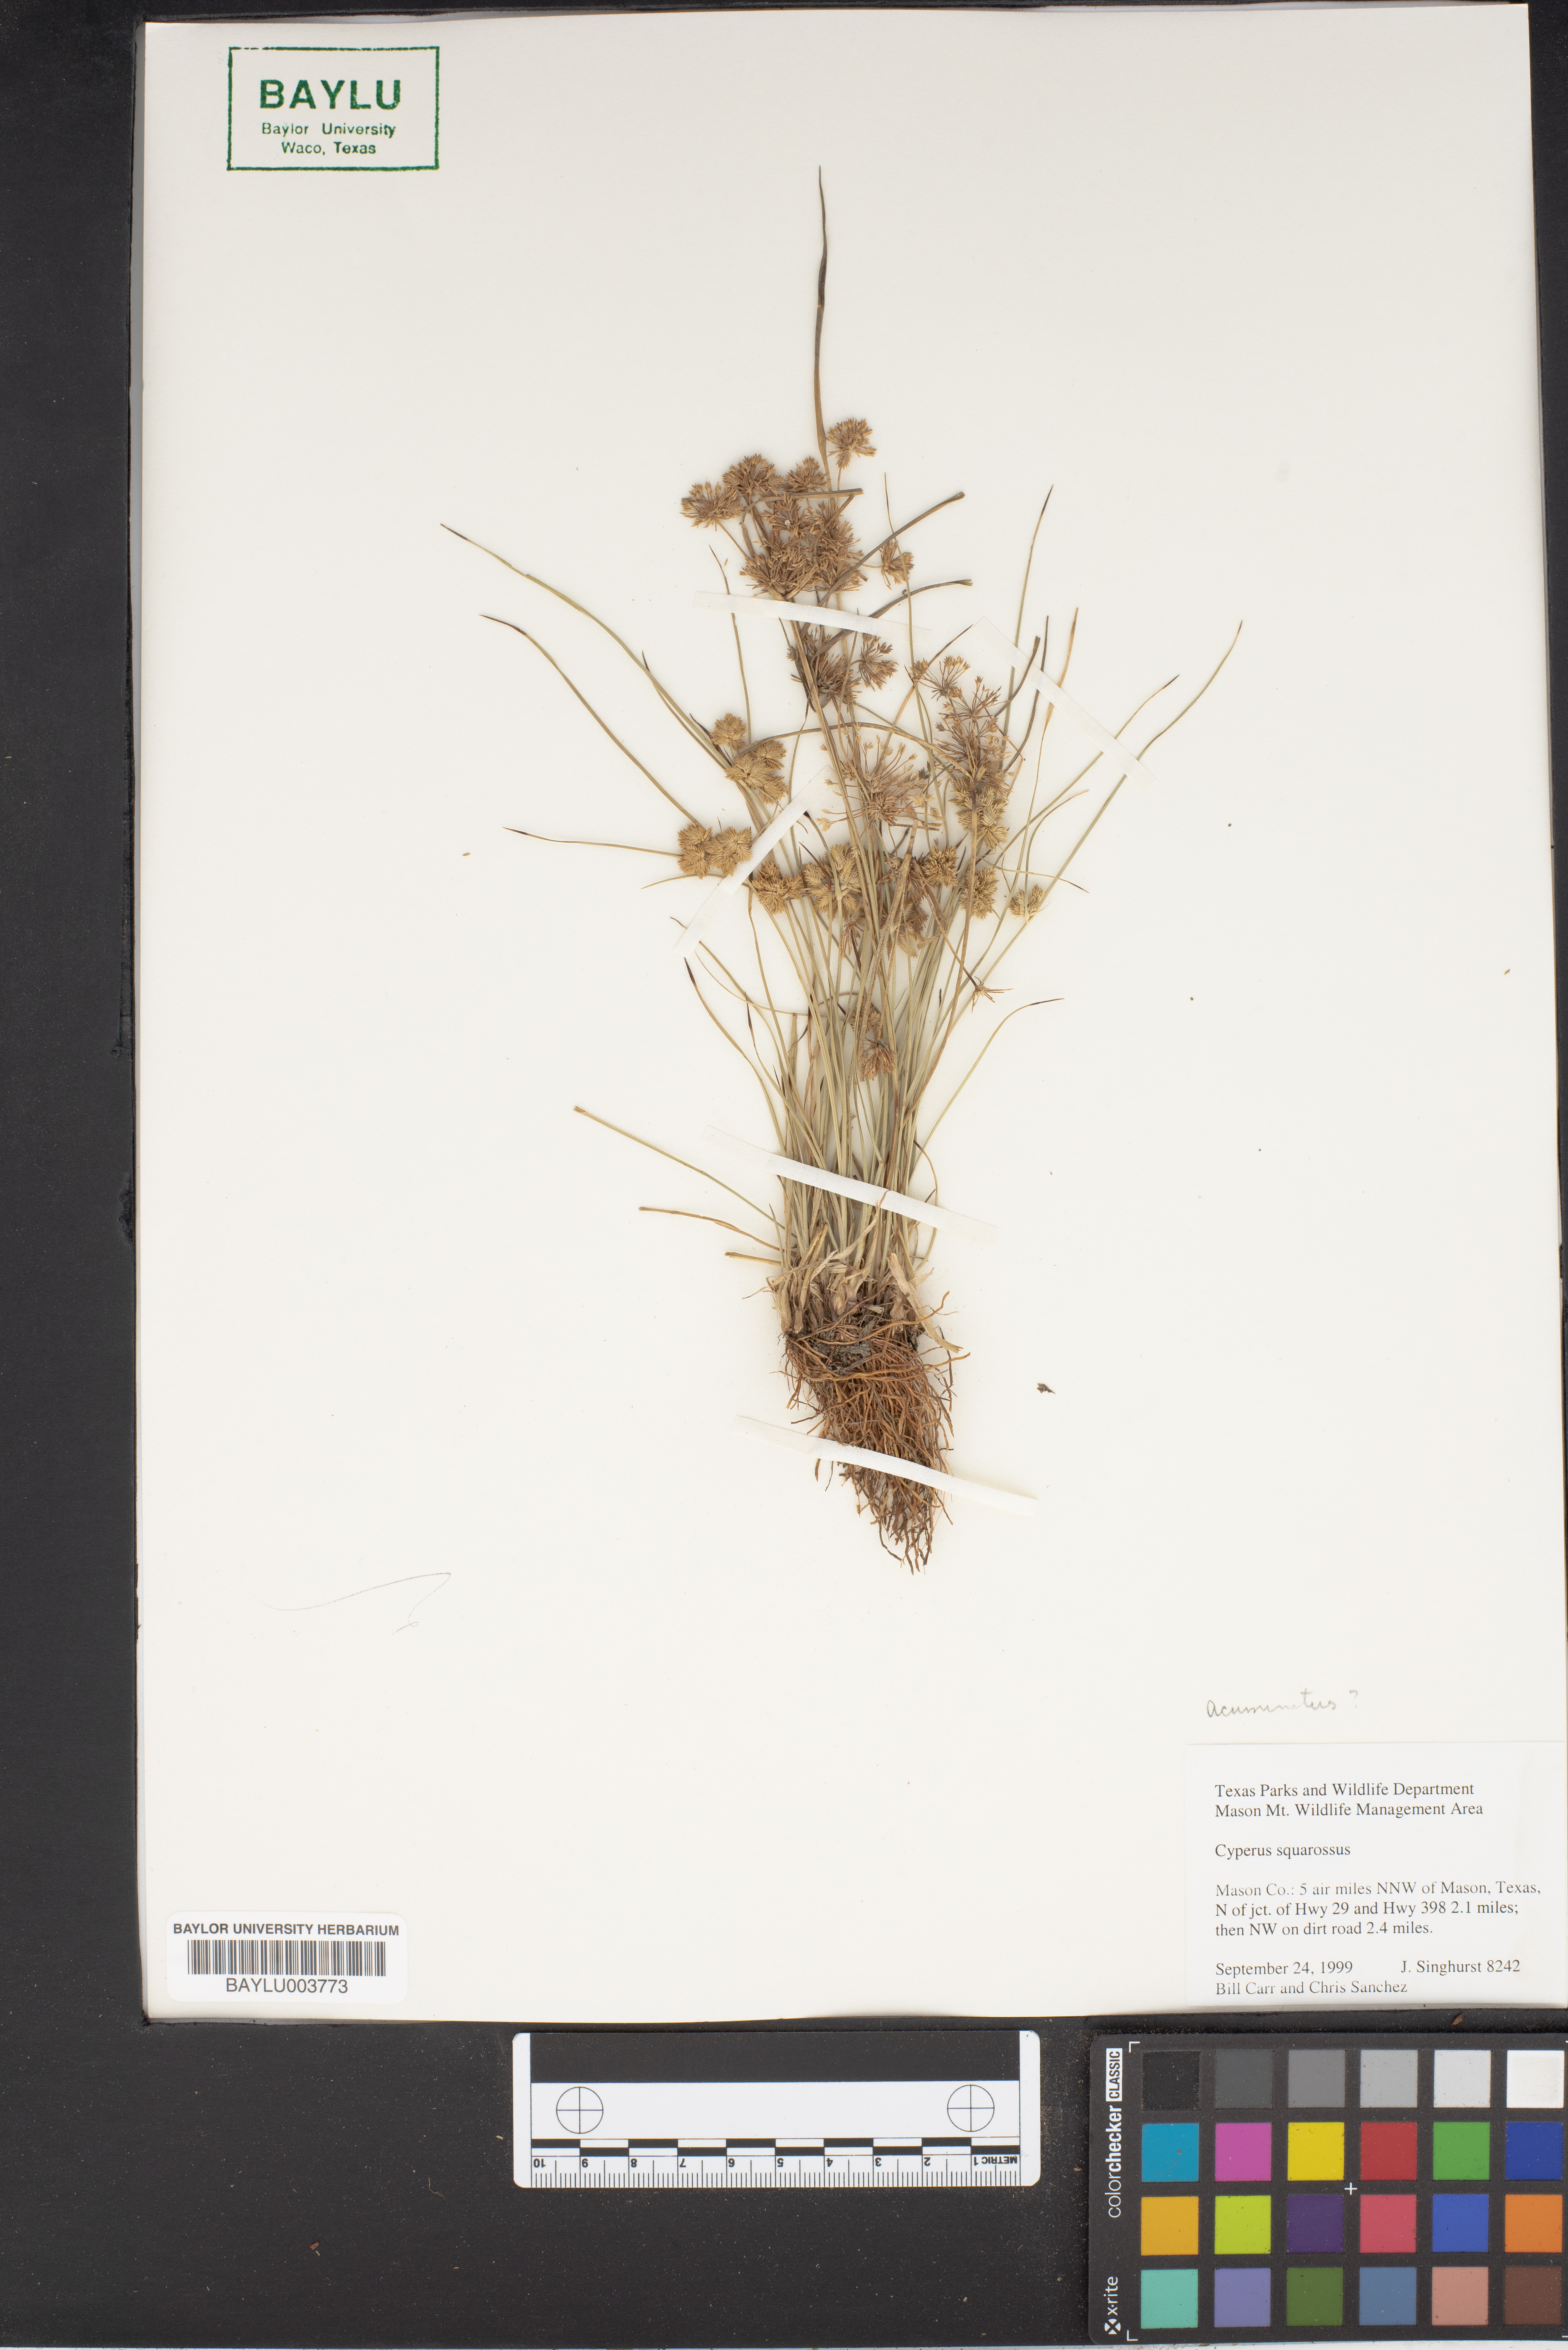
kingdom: Plantae
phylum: Tracheophyta
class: Liliopsida
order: Poales
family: Cyperaceae
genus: Cyperus
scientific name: Cyperus squarrosus
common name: Awned cyperus
